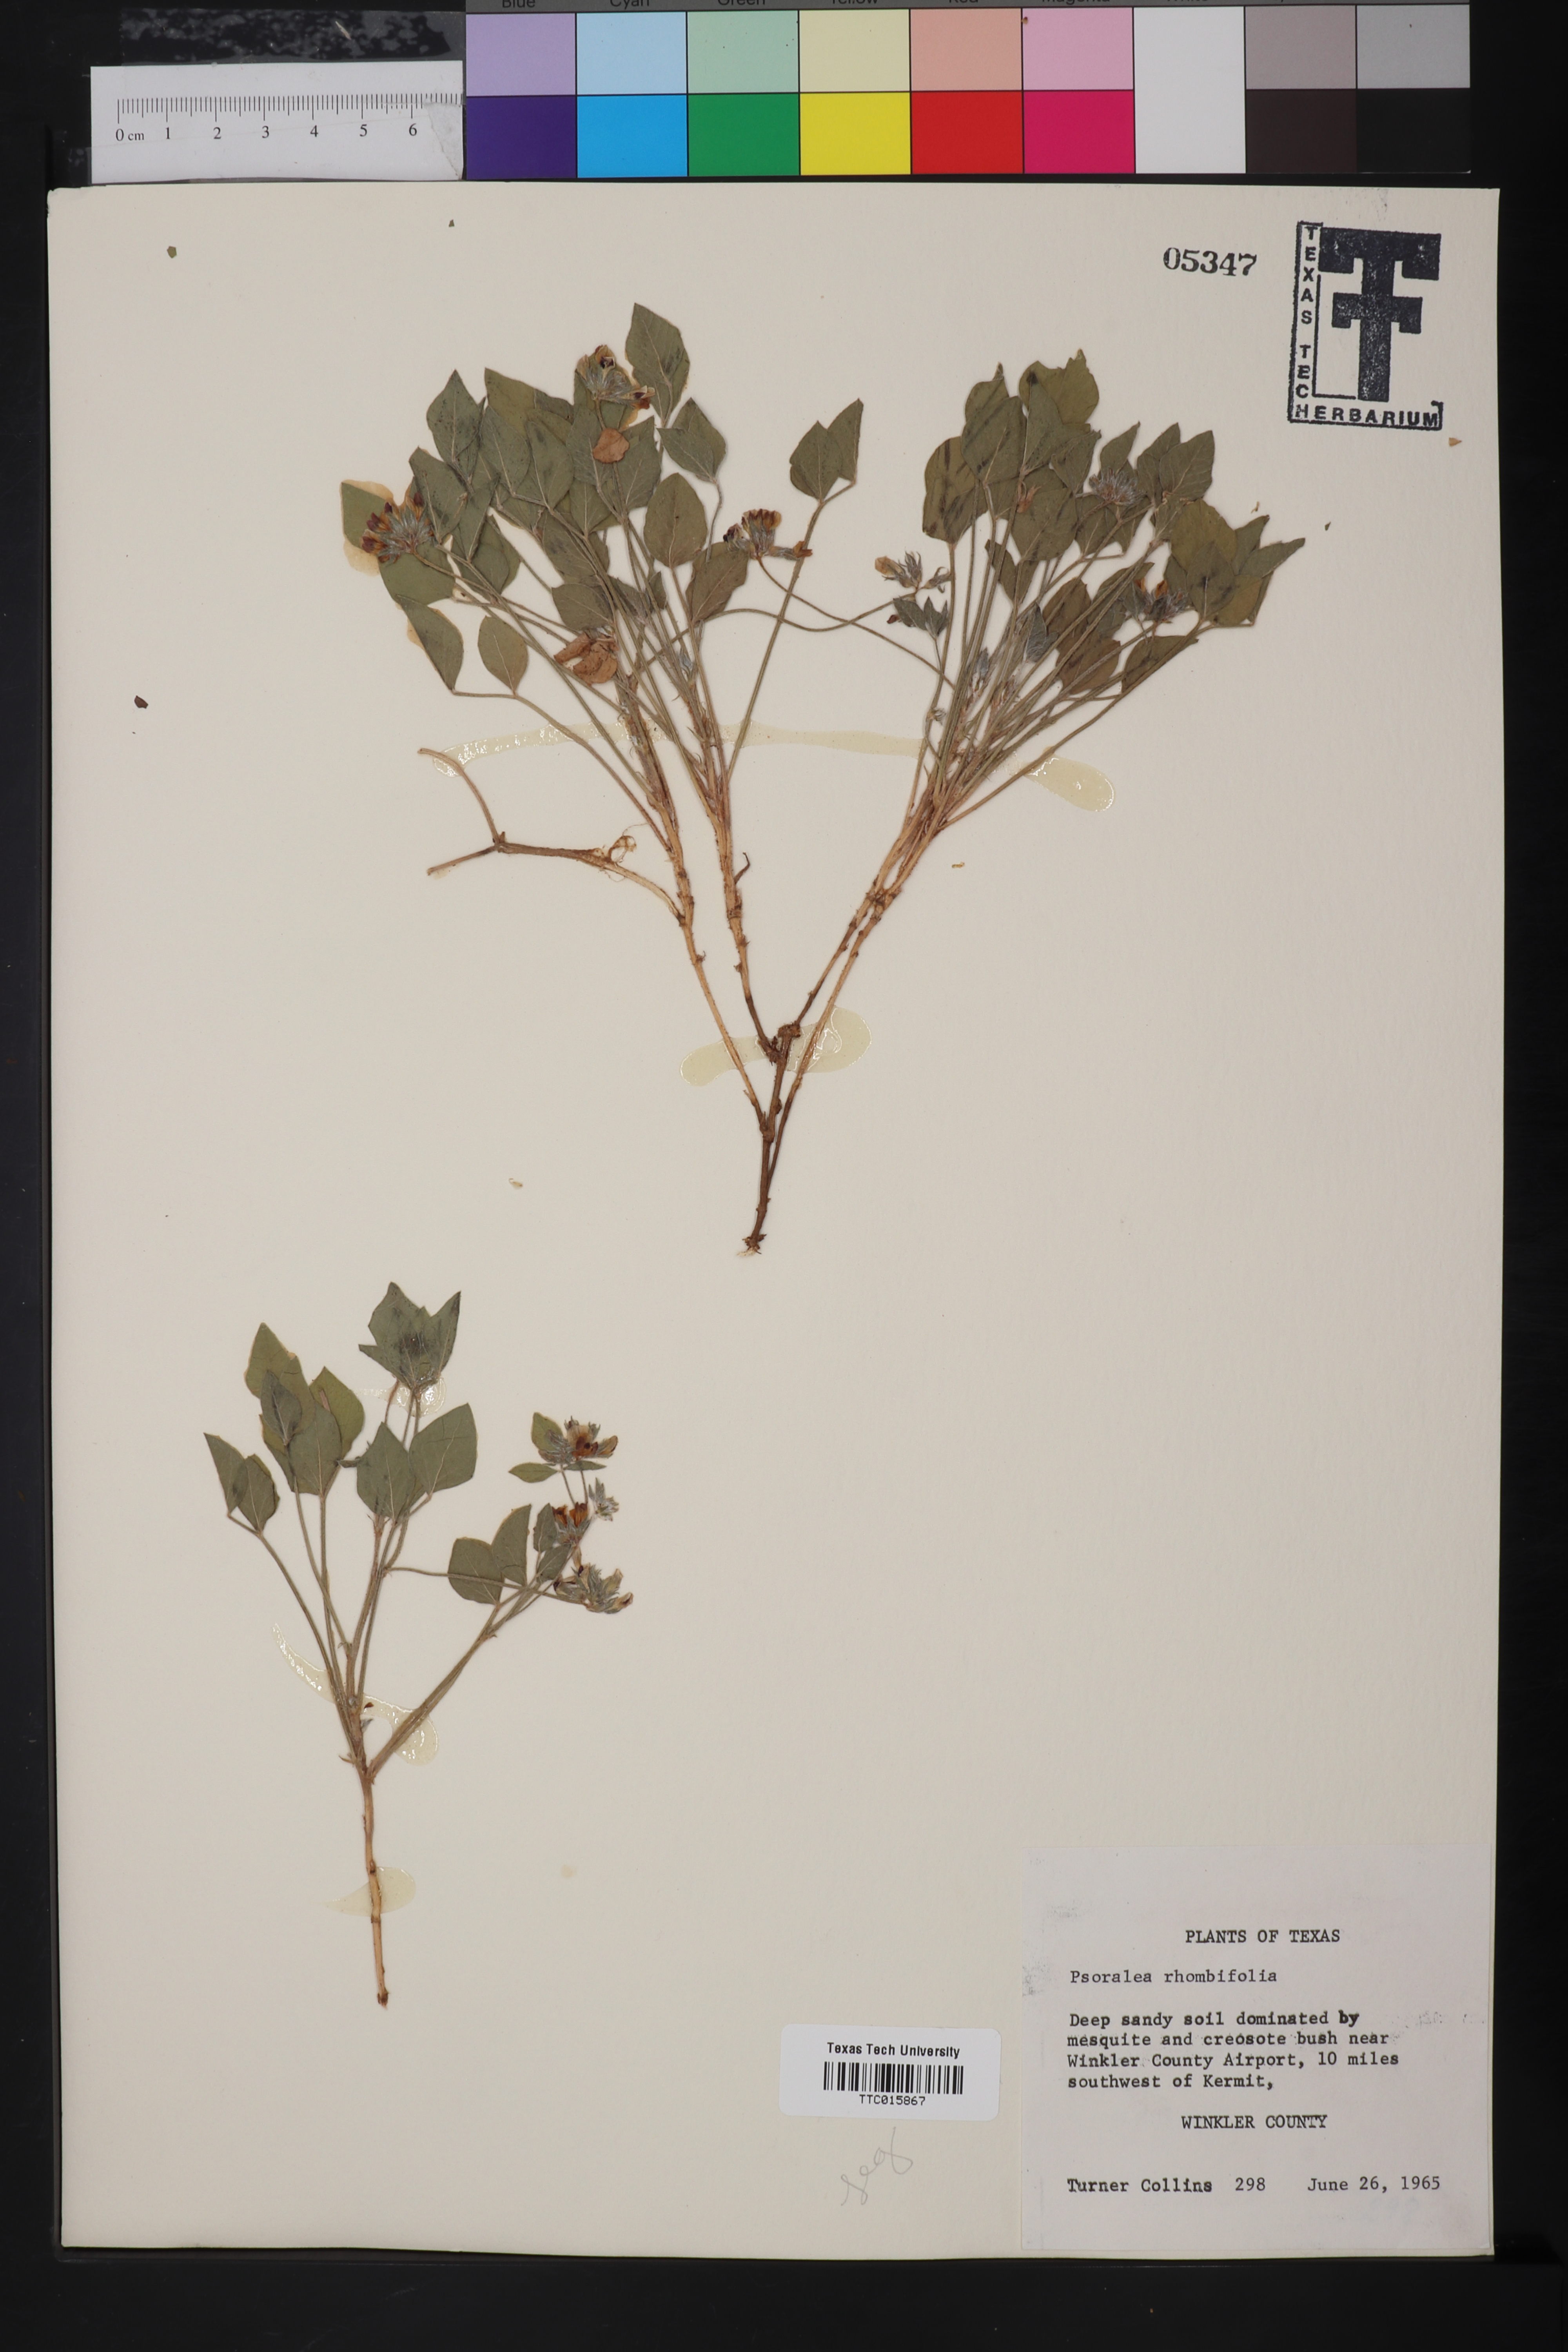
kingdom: Plantae
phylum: Tracheophyta
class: Magnoliopsida
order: Fabales
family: Fabaceae
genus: Pediomelum
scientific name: Pediomelum rhombifolium
